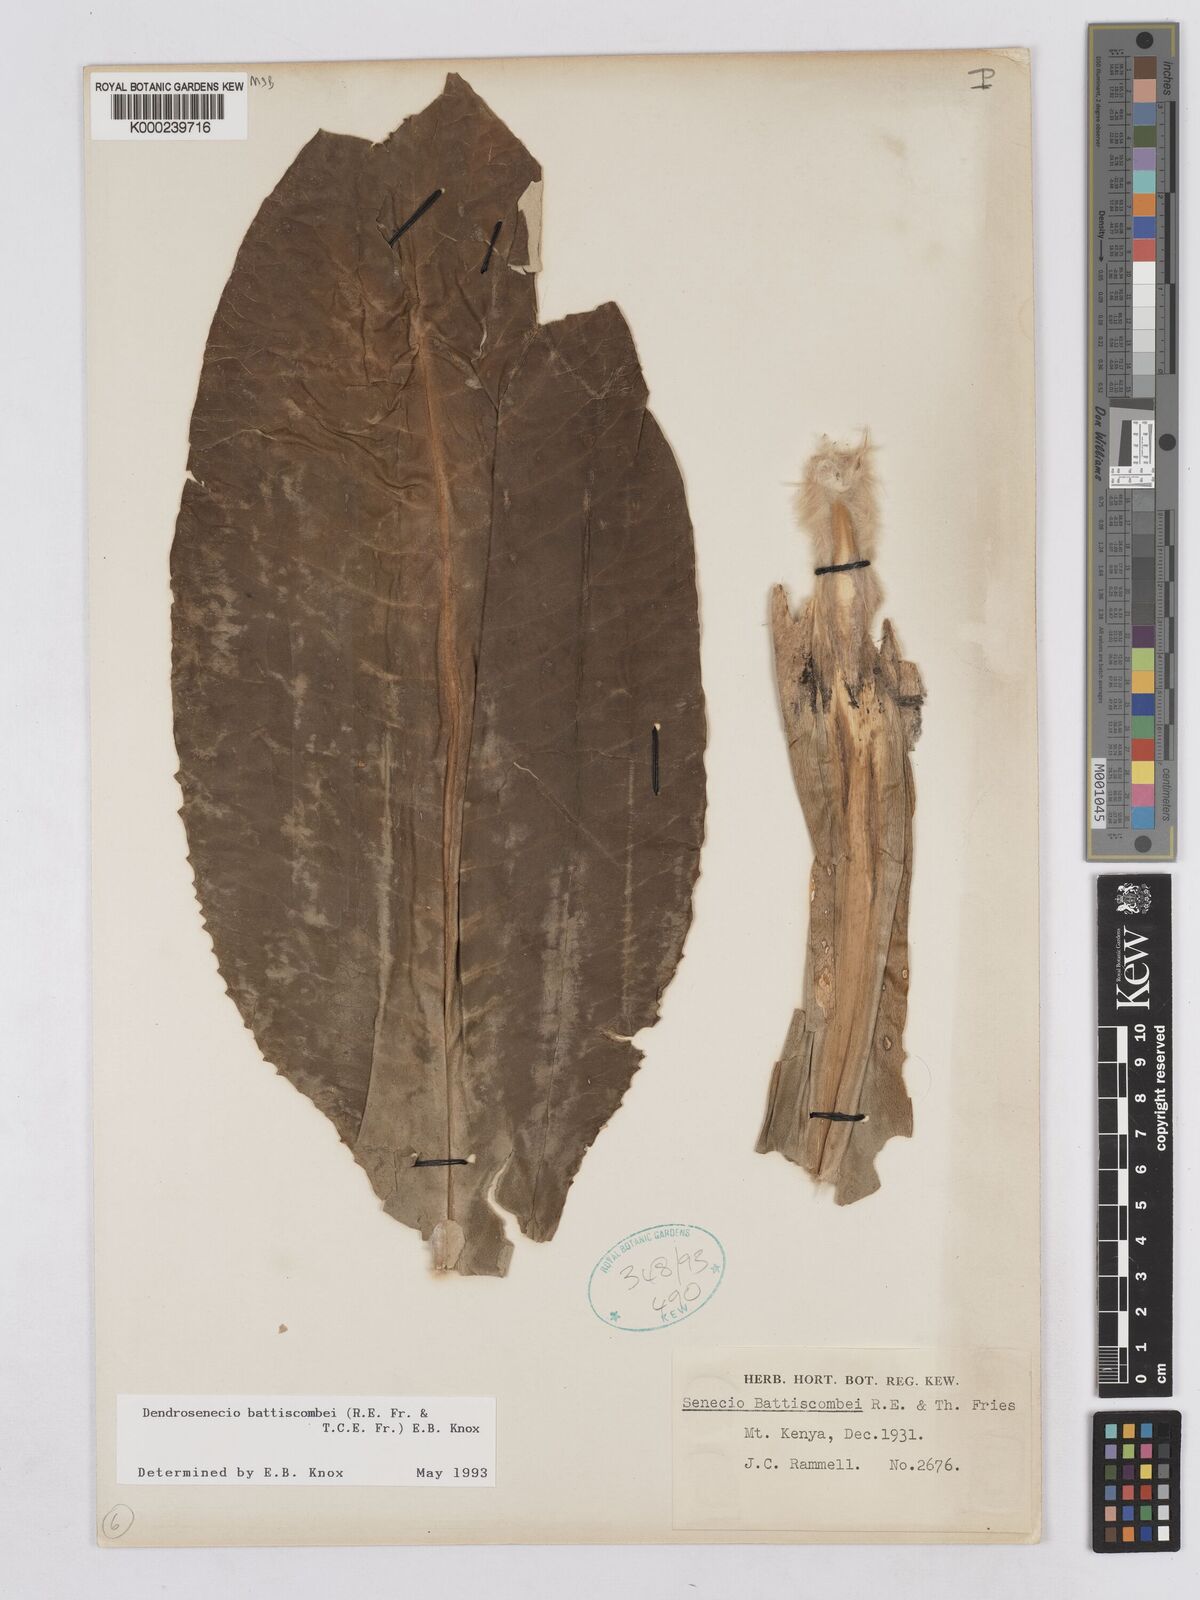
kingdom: Plantae
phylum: Tracheophyta
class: Magnoliopsida
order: Asterales
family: Asteraceae
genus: Dendrosenecio
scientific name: Dendrosenecio battiscombei
